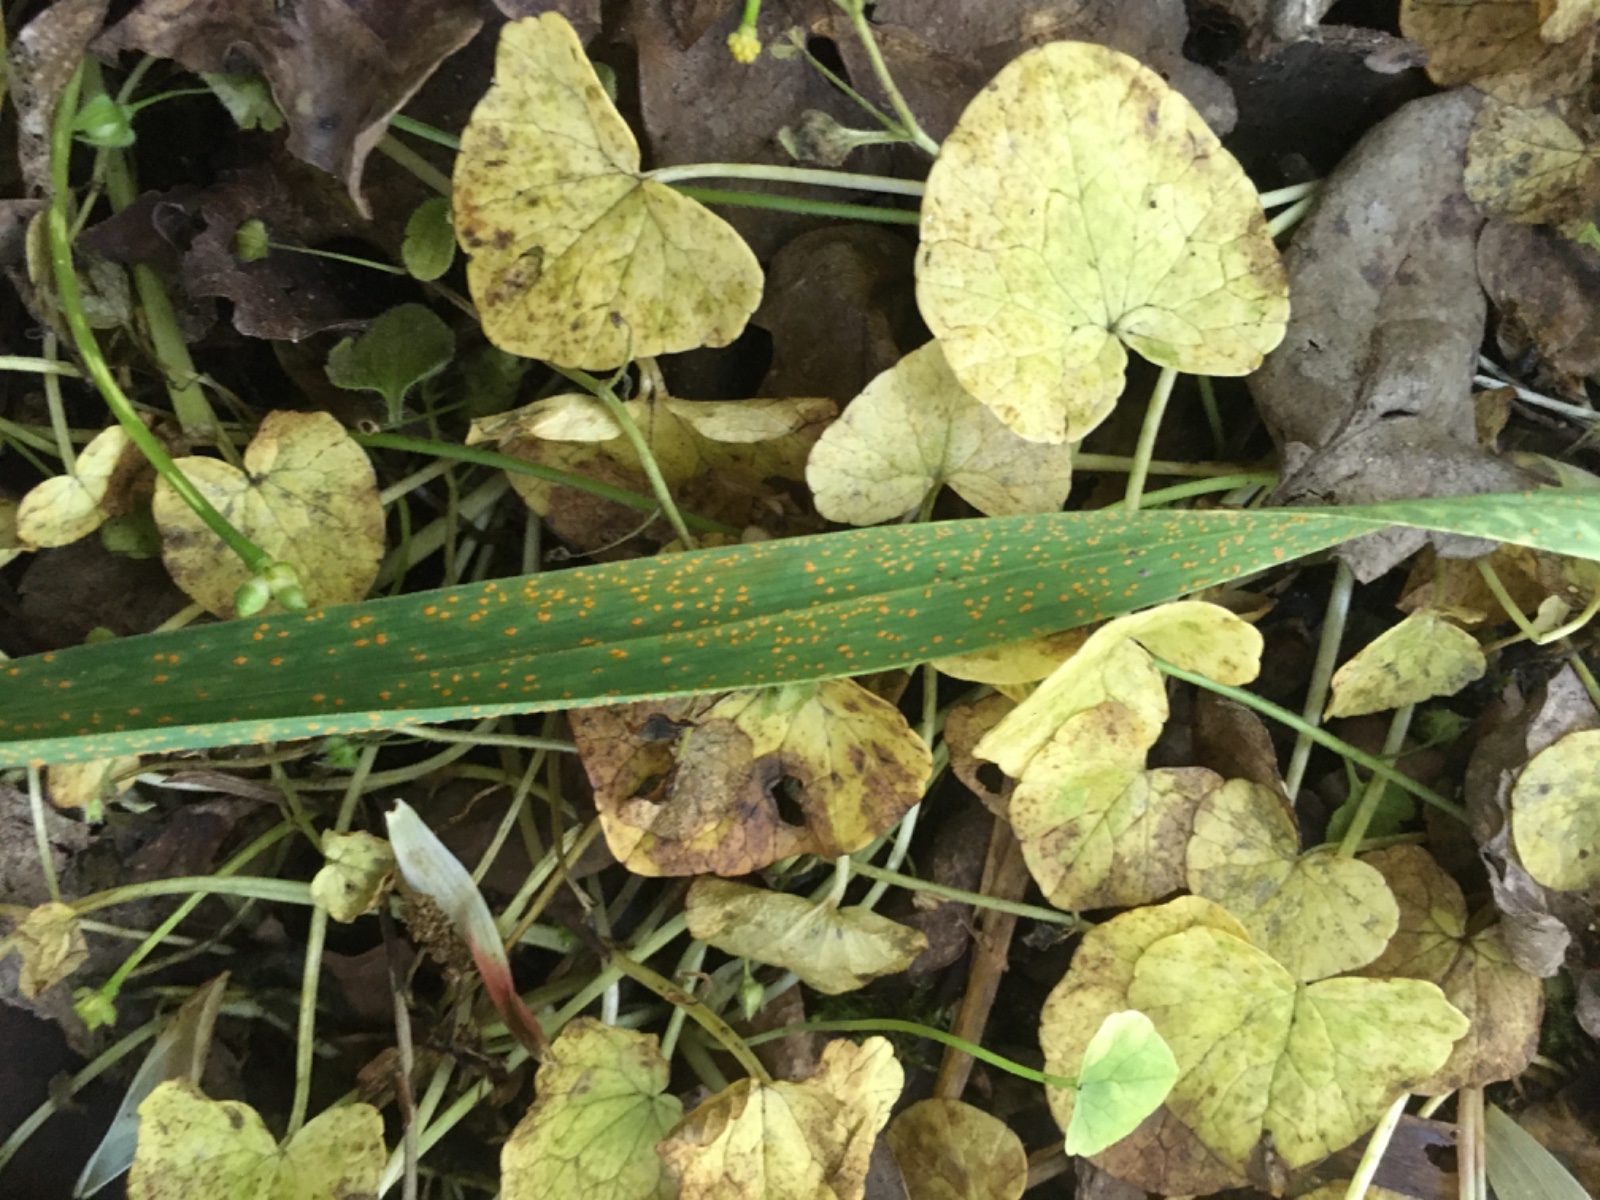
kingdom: Fungi
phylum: Basidiomycota
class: Pucciniomycetes
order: Pucciniales
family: Pucciniaceae
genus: Puccinia
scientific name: Puccinia porri
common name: Allium rust
